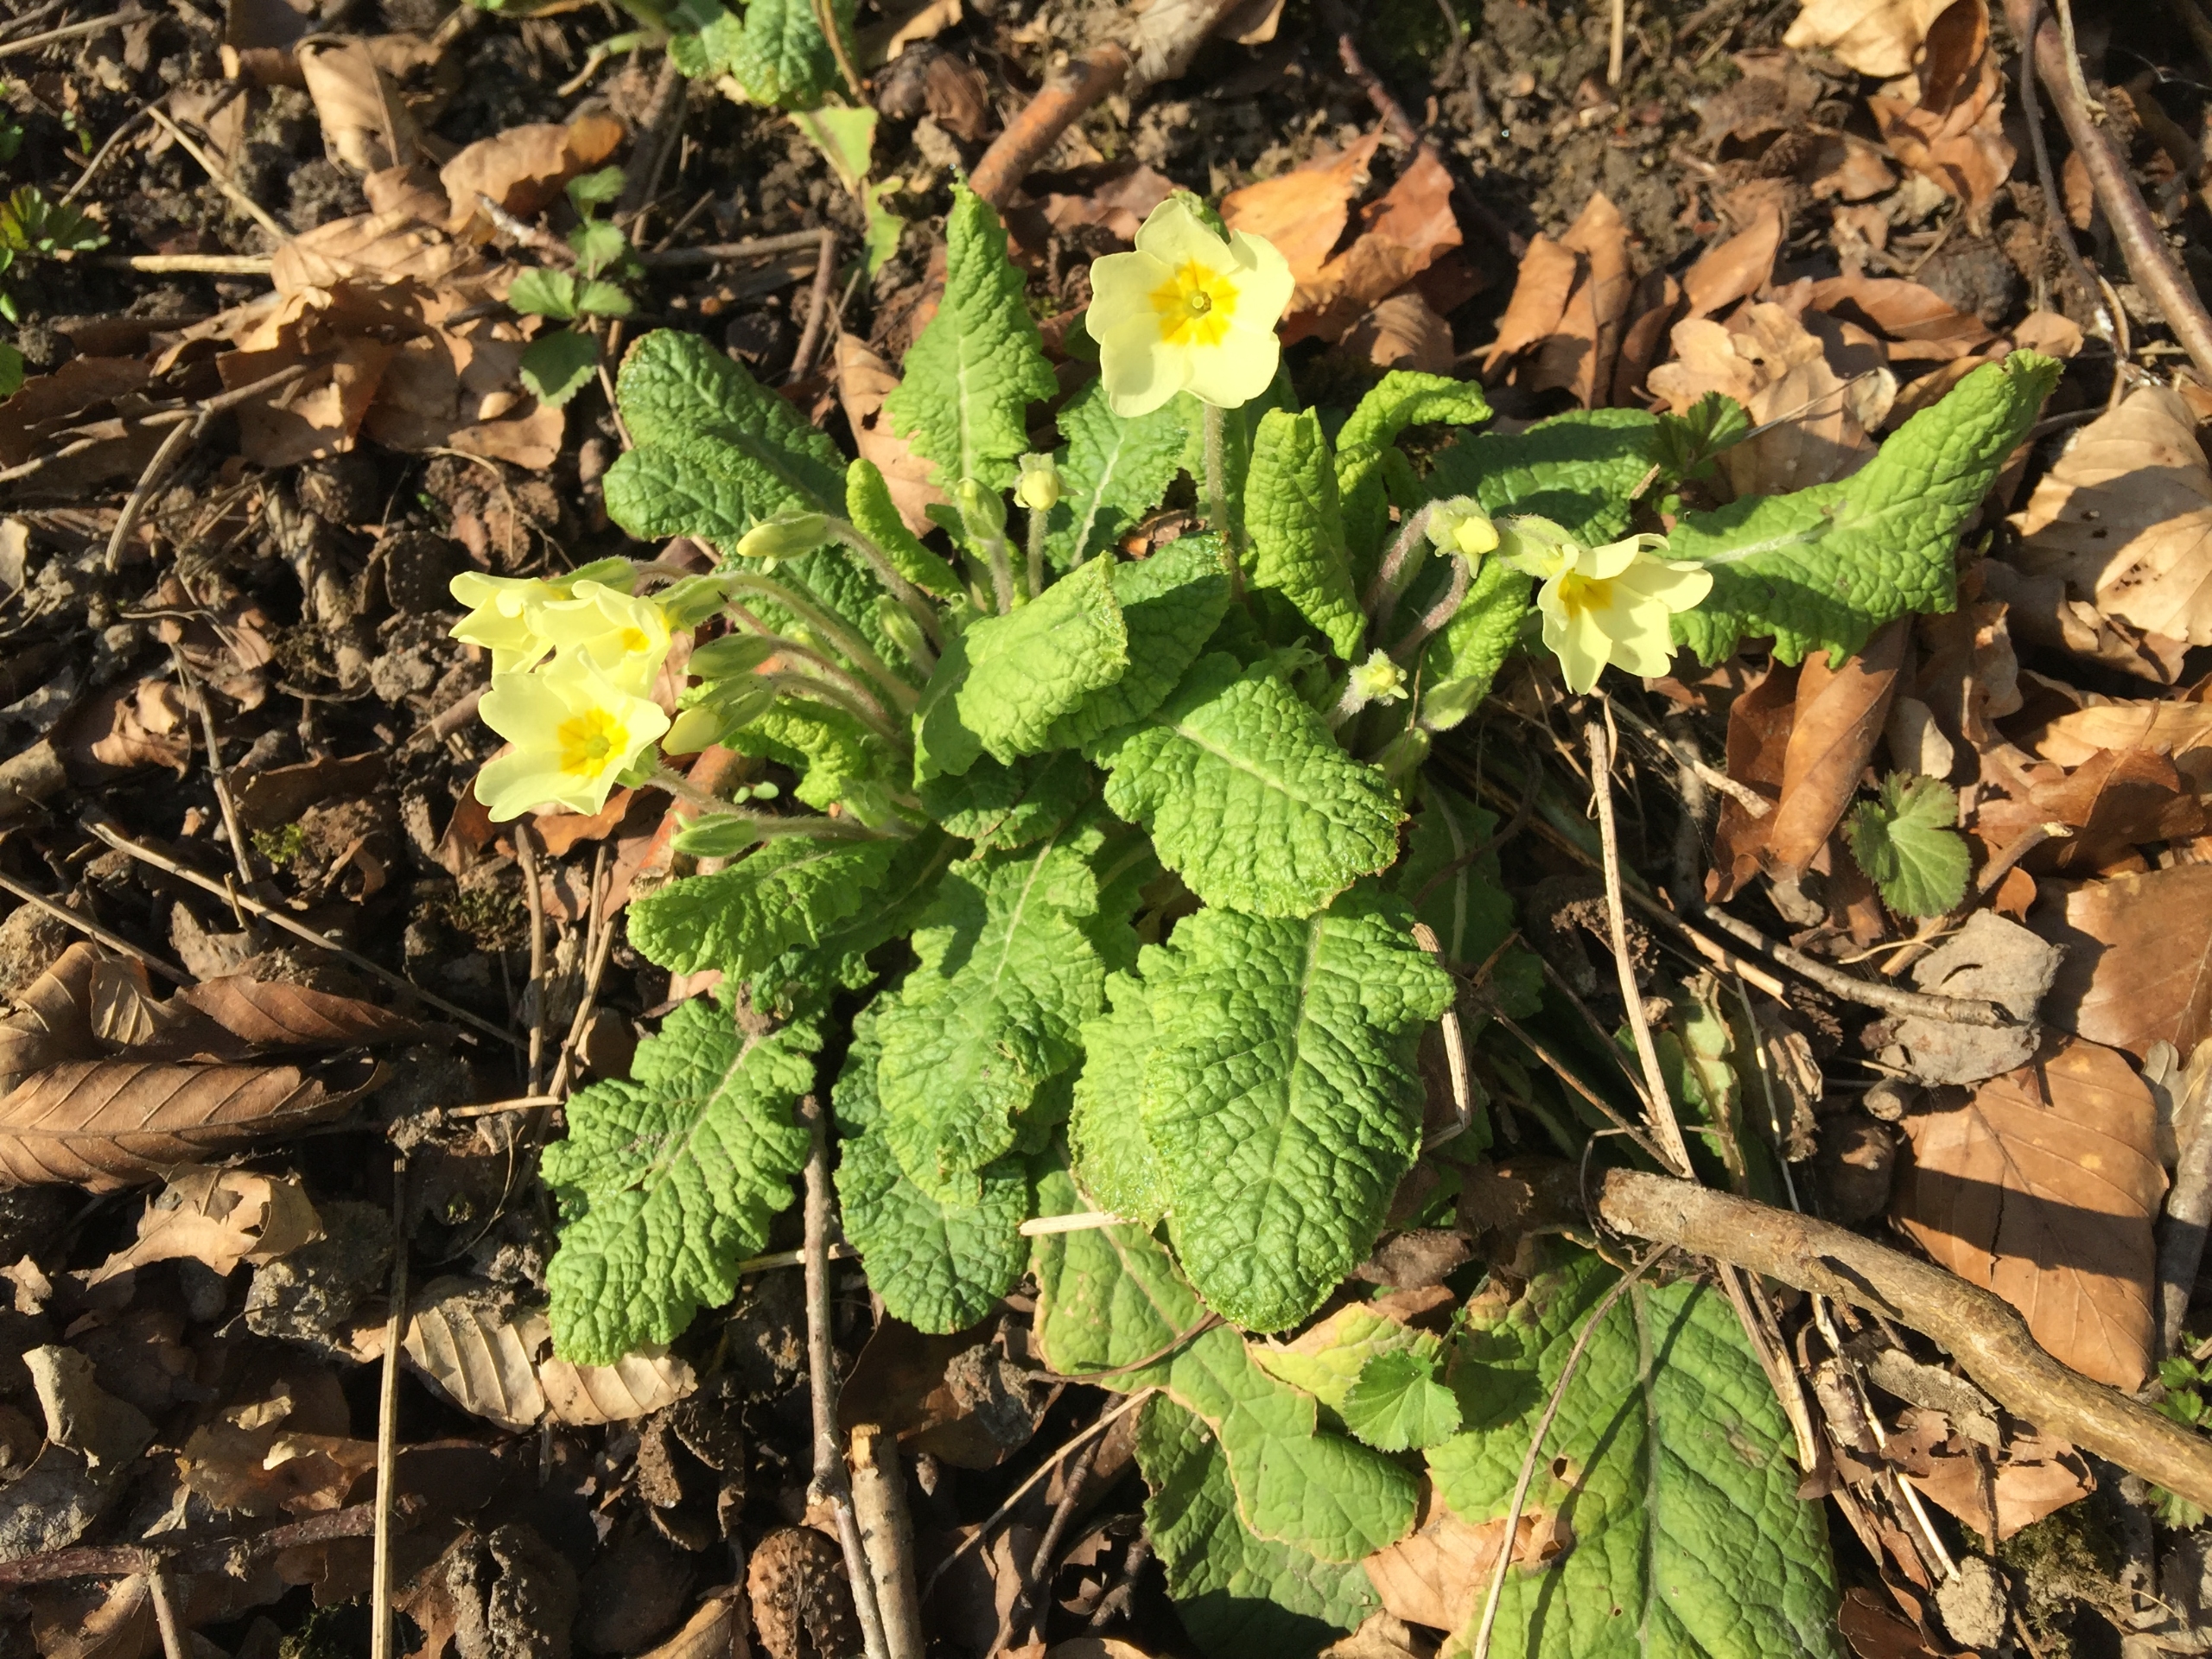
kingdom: Plantae
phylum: Tracheophyta
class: Magnoliopsida
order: Ericales
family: Primulaceae
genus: Primula
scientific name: Primula vulgaris
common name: Storblomstret kodriver
